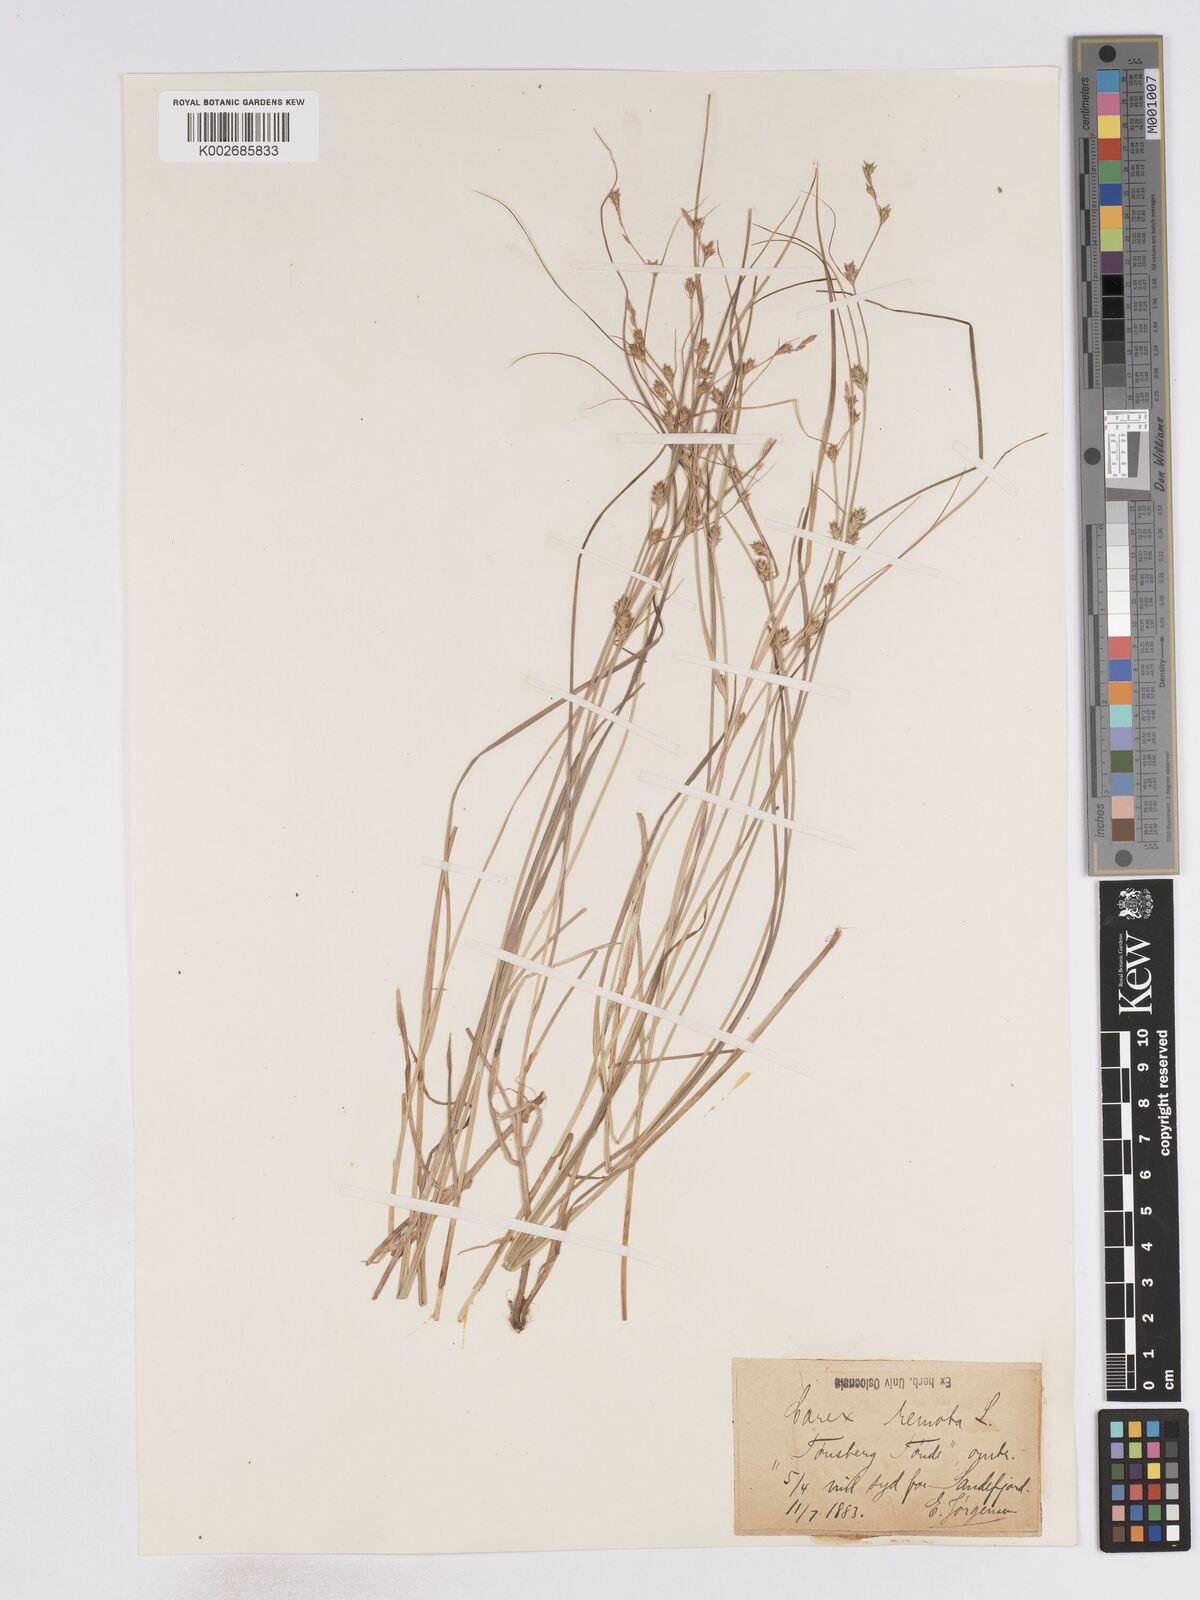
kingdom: Plantae
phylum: Tracheophyta
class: Liliopsida
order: Poales
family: Cyperaceae
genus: Carex
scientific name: Carex remota
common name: Remote sedge
